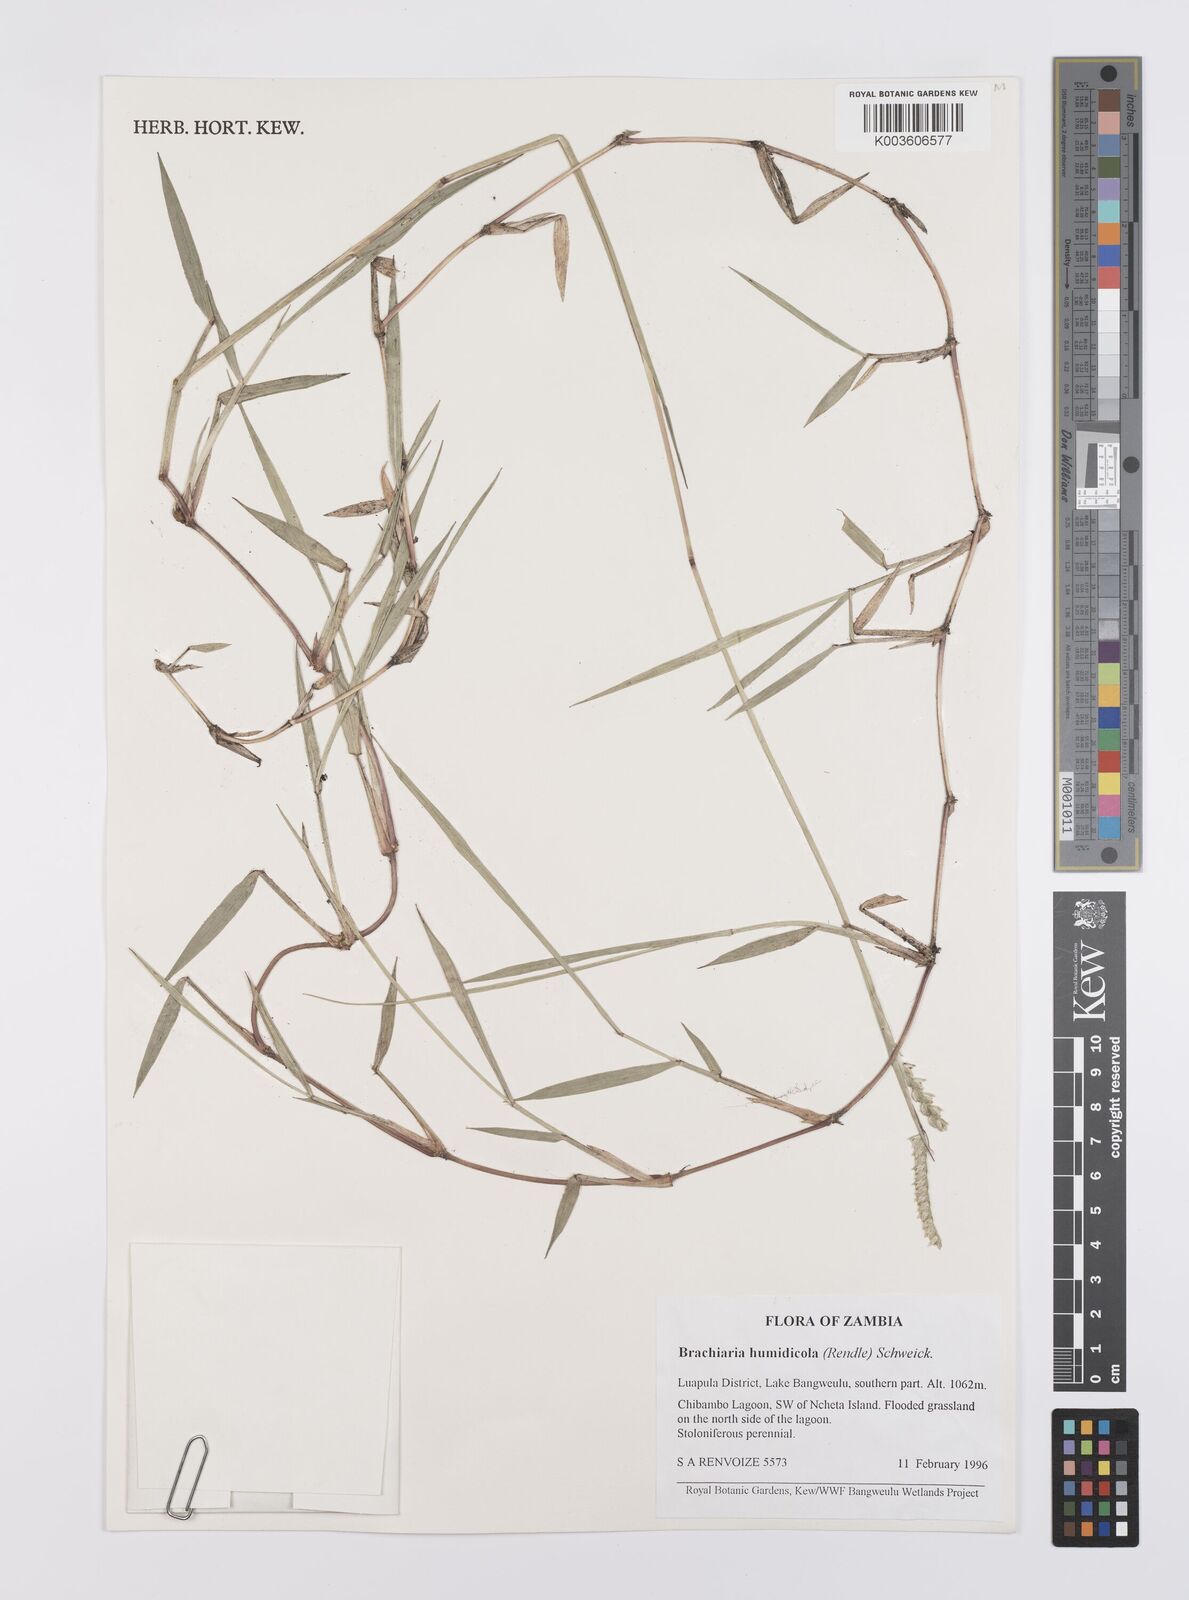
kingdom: Plantae
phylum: Tracheophyta
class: Liliopsida
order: Poales
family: Poaceae
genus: Urochloa
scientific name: Urochloa dictyoneura
